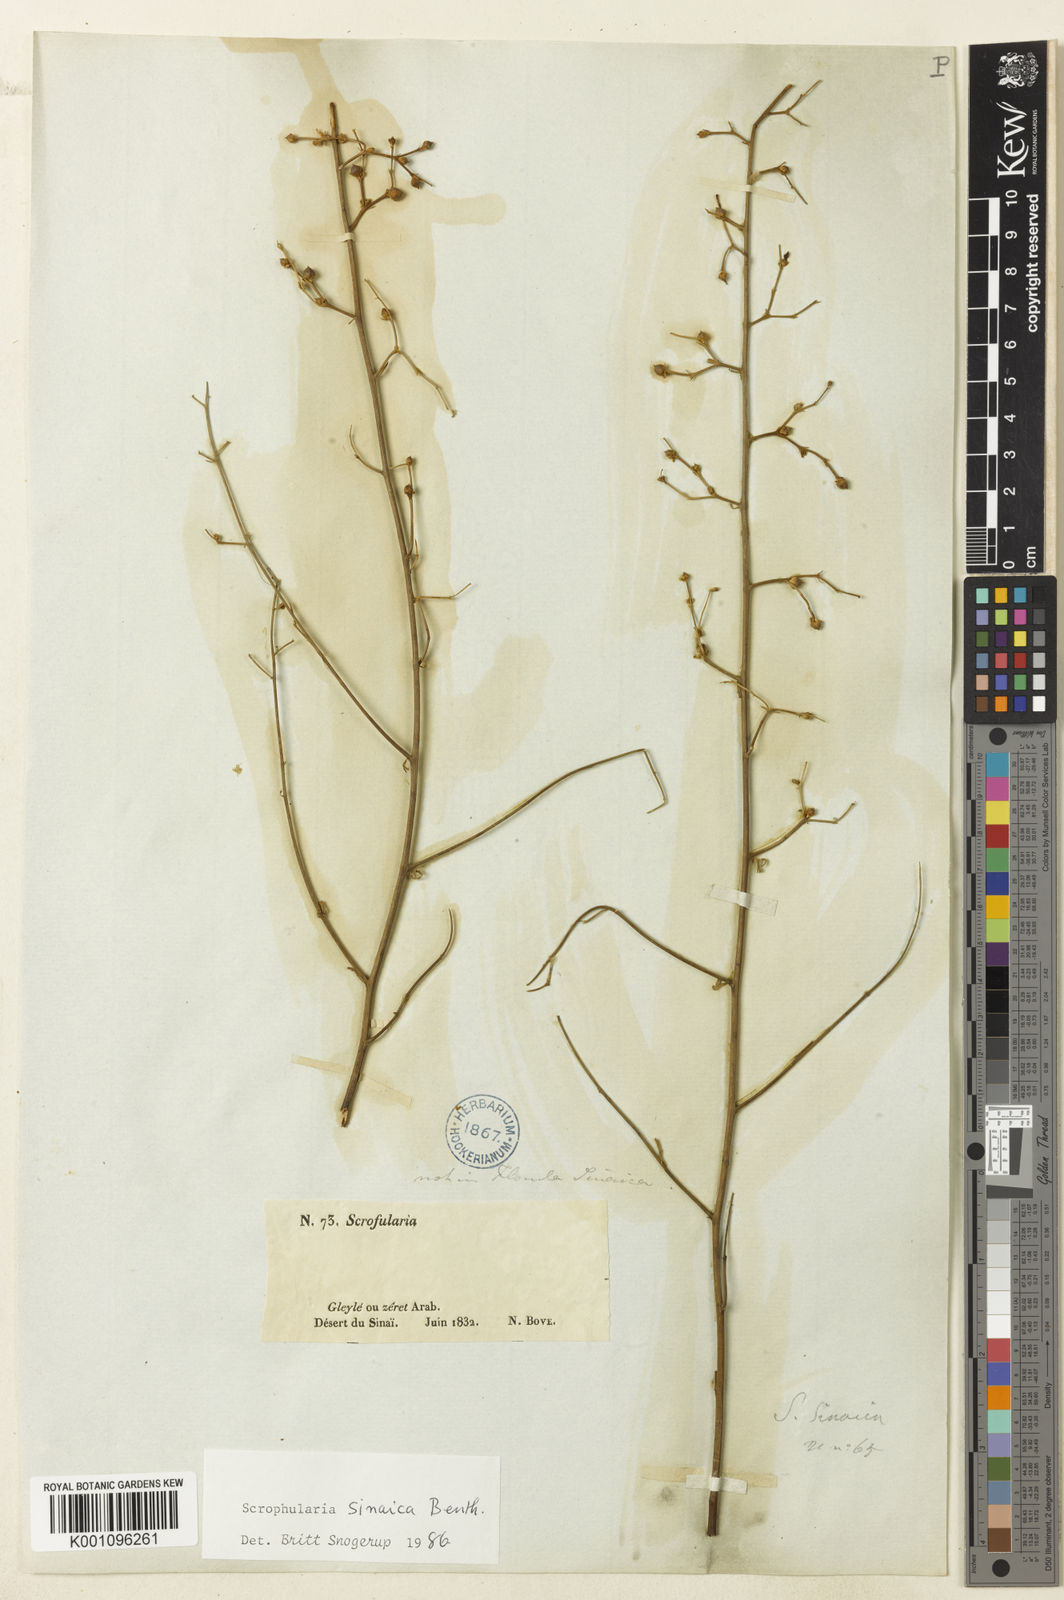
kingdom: Plantae
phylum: Tracheophyta
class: Magnoliopsida
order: Lamiales
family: Scrophulariaceae
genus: Scrophularia
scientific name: Scrophularia deserti
